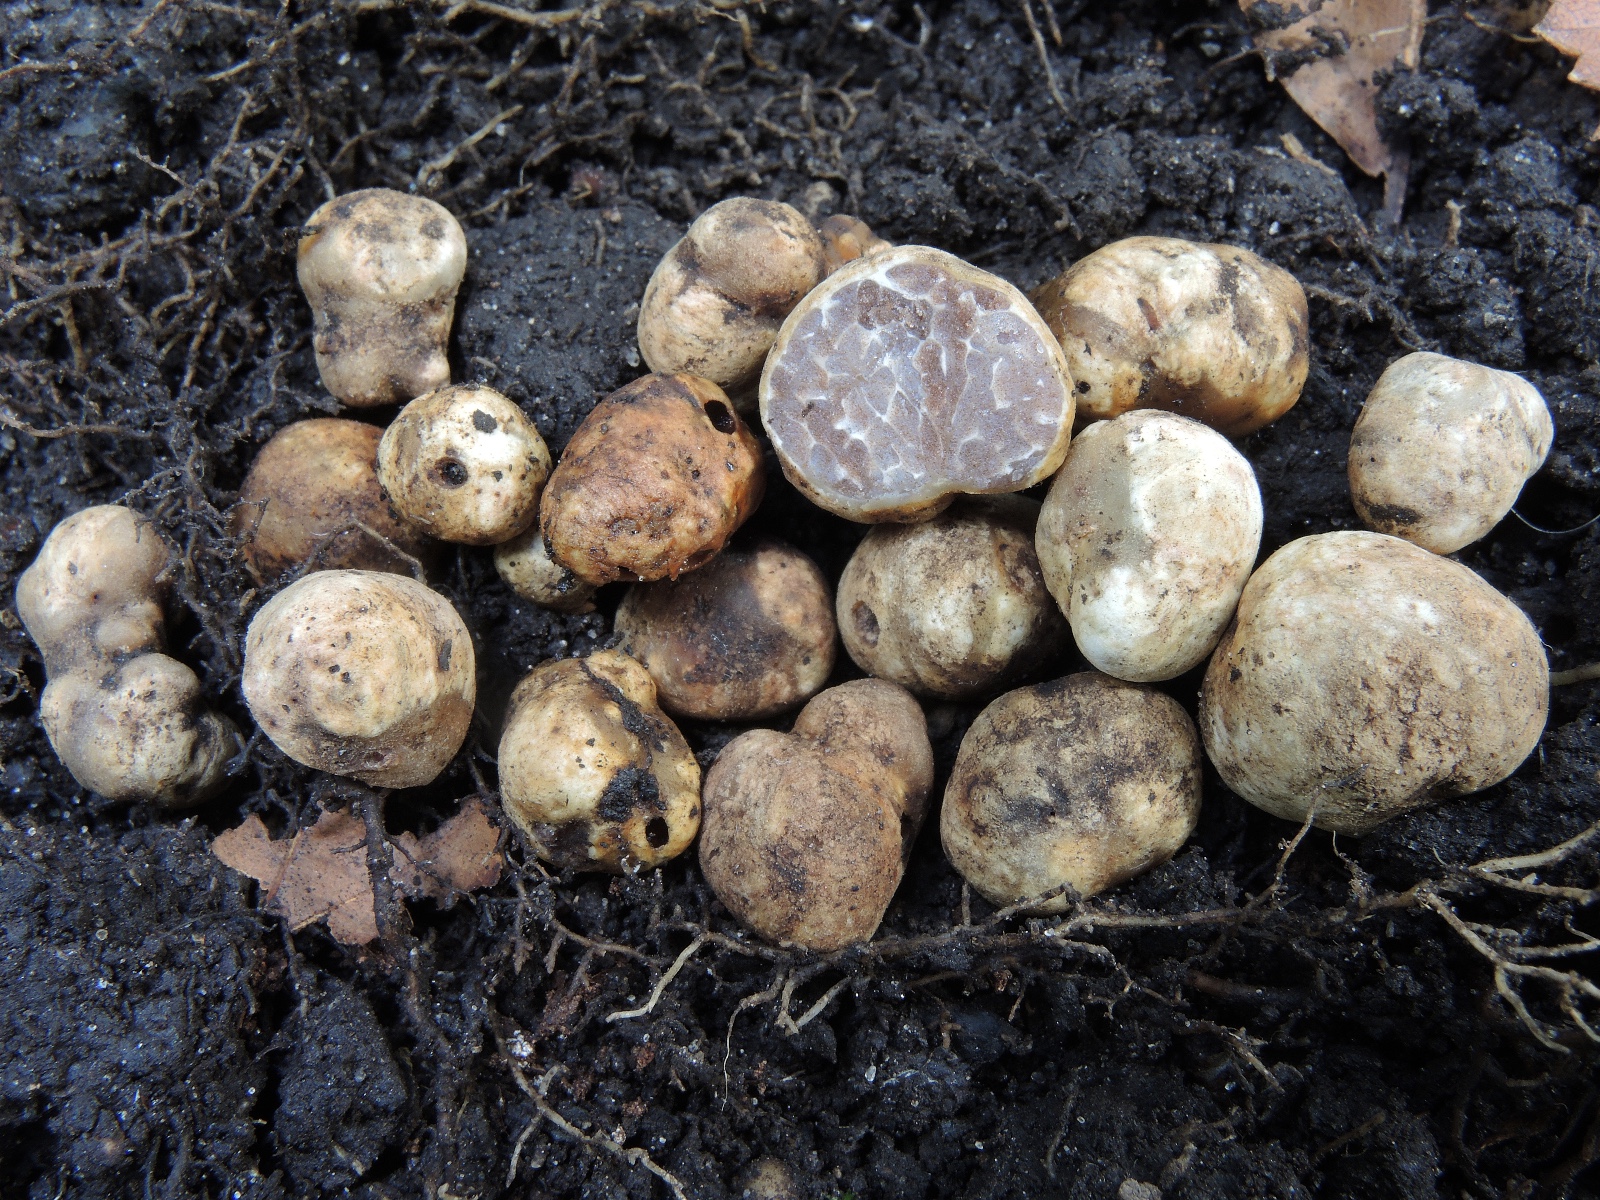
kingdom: Fungi
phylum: Ascomycota
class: Pezizomycetes
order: Pezizales
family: Tuberaceae
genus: Tuber
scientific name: Tuber dryophilum
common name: Wood truffle
